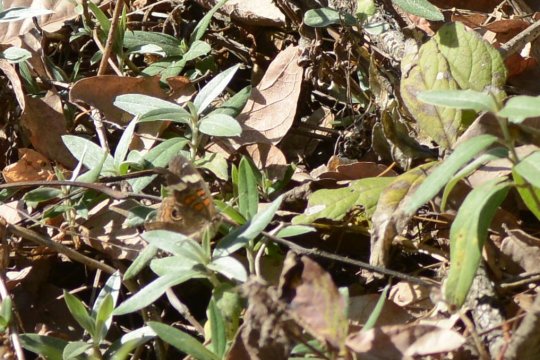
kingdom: Animalia
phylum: Arthropoda
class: Insecta
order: Lepidoptera
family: Nymphalidae
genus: Junonia
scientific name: Junonia coenia
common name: Common Buckeye
